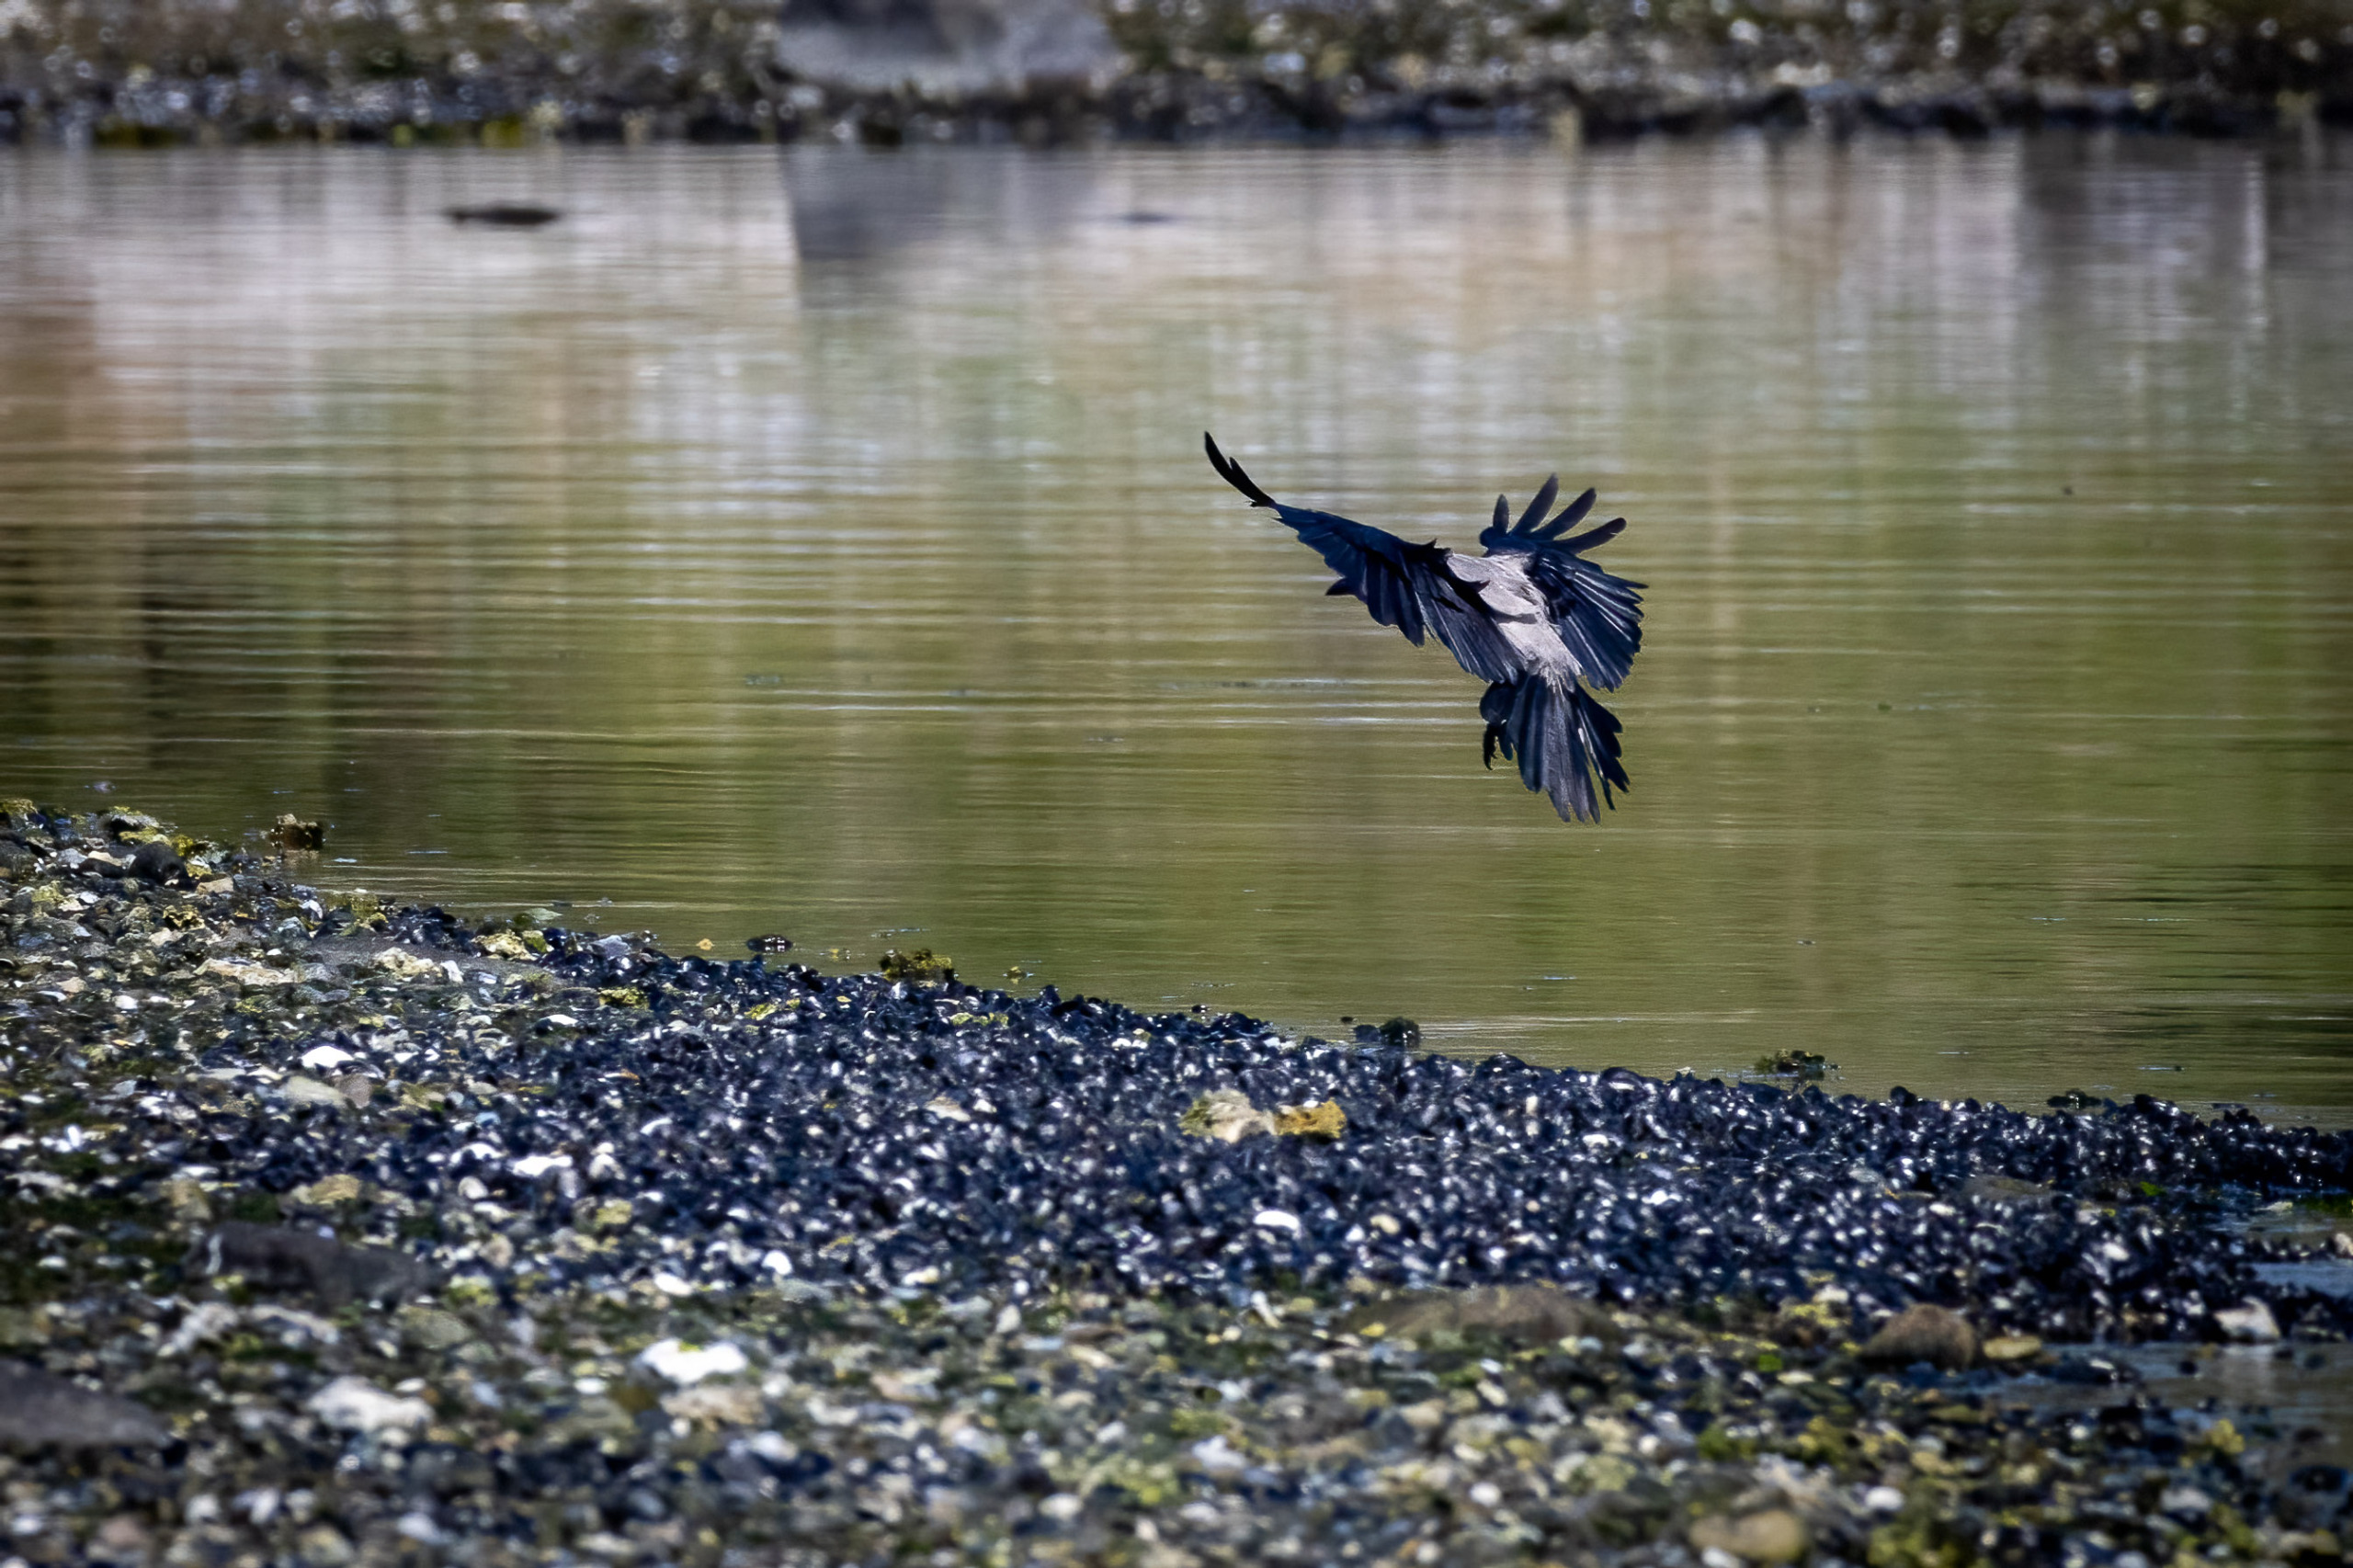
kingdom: Animalia
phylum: Chordata
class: Aves
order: Passeriformes
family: Corvidae
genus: Corvus
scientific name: Corvus cornix
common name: Gråkrage
